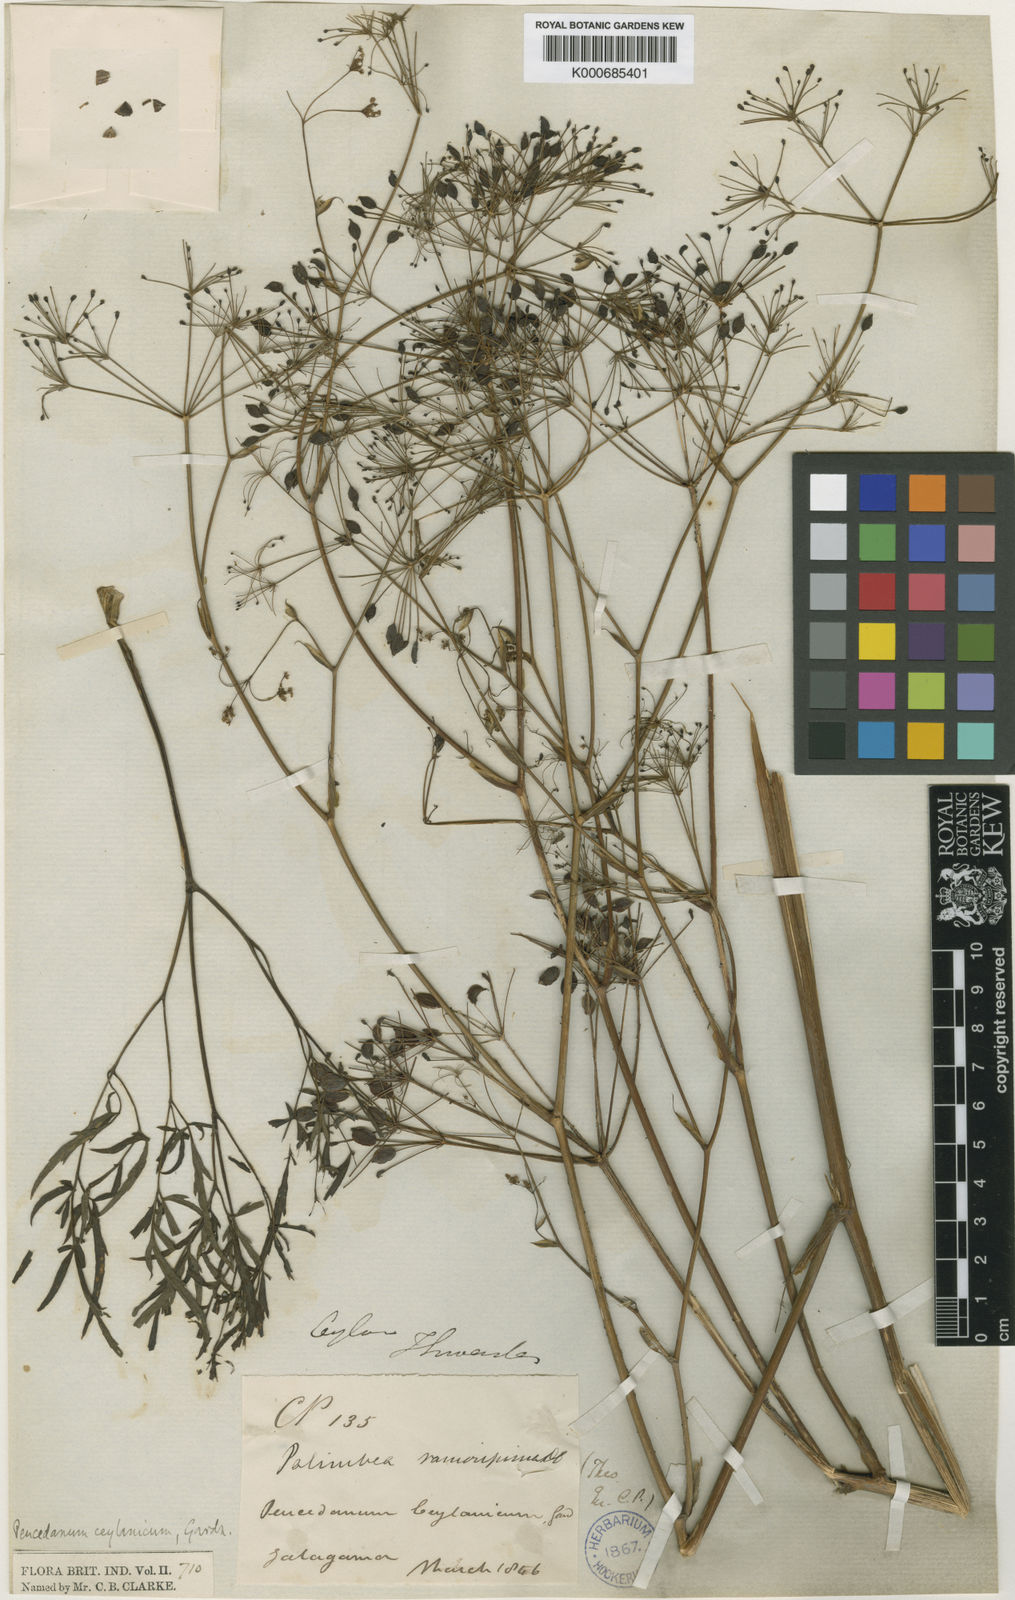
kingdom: Plantae
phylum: Tracheophyta
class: Magnoliopsida
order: Apiales
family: Apiaceae
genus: Tetrataenium
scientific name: Tetrataenium ceylanicum
